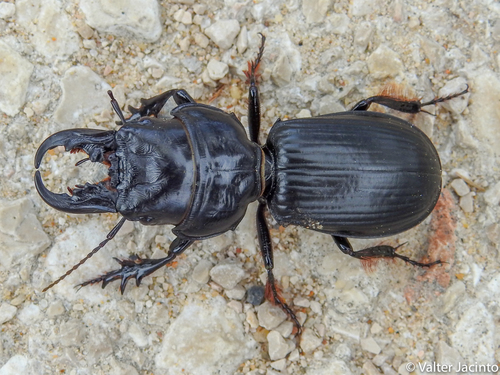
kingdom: Animalia
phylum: Arthropoda
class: Insecta
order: Coleoptera
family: Carabidae
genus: Scarites
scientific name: Scarites cyclops
